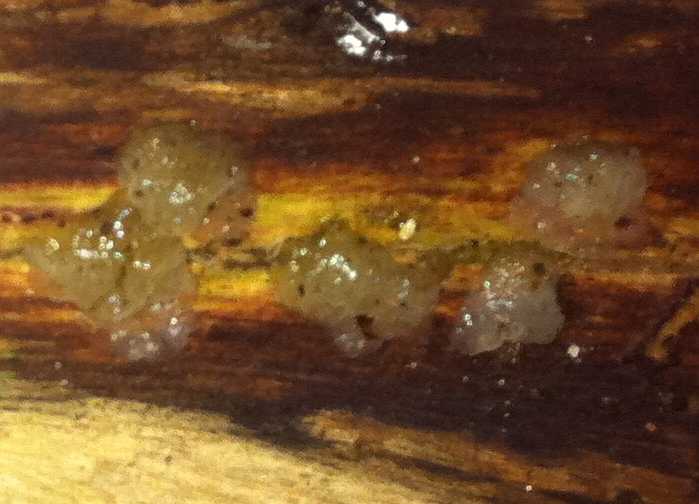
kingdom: Fungi
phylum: Basidiomycota
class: Agaricomycetes
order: Auriculariales
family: Hyaloriaceae
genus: Myxarium
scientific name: Myxarium nucleatum
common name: klar bævretop
